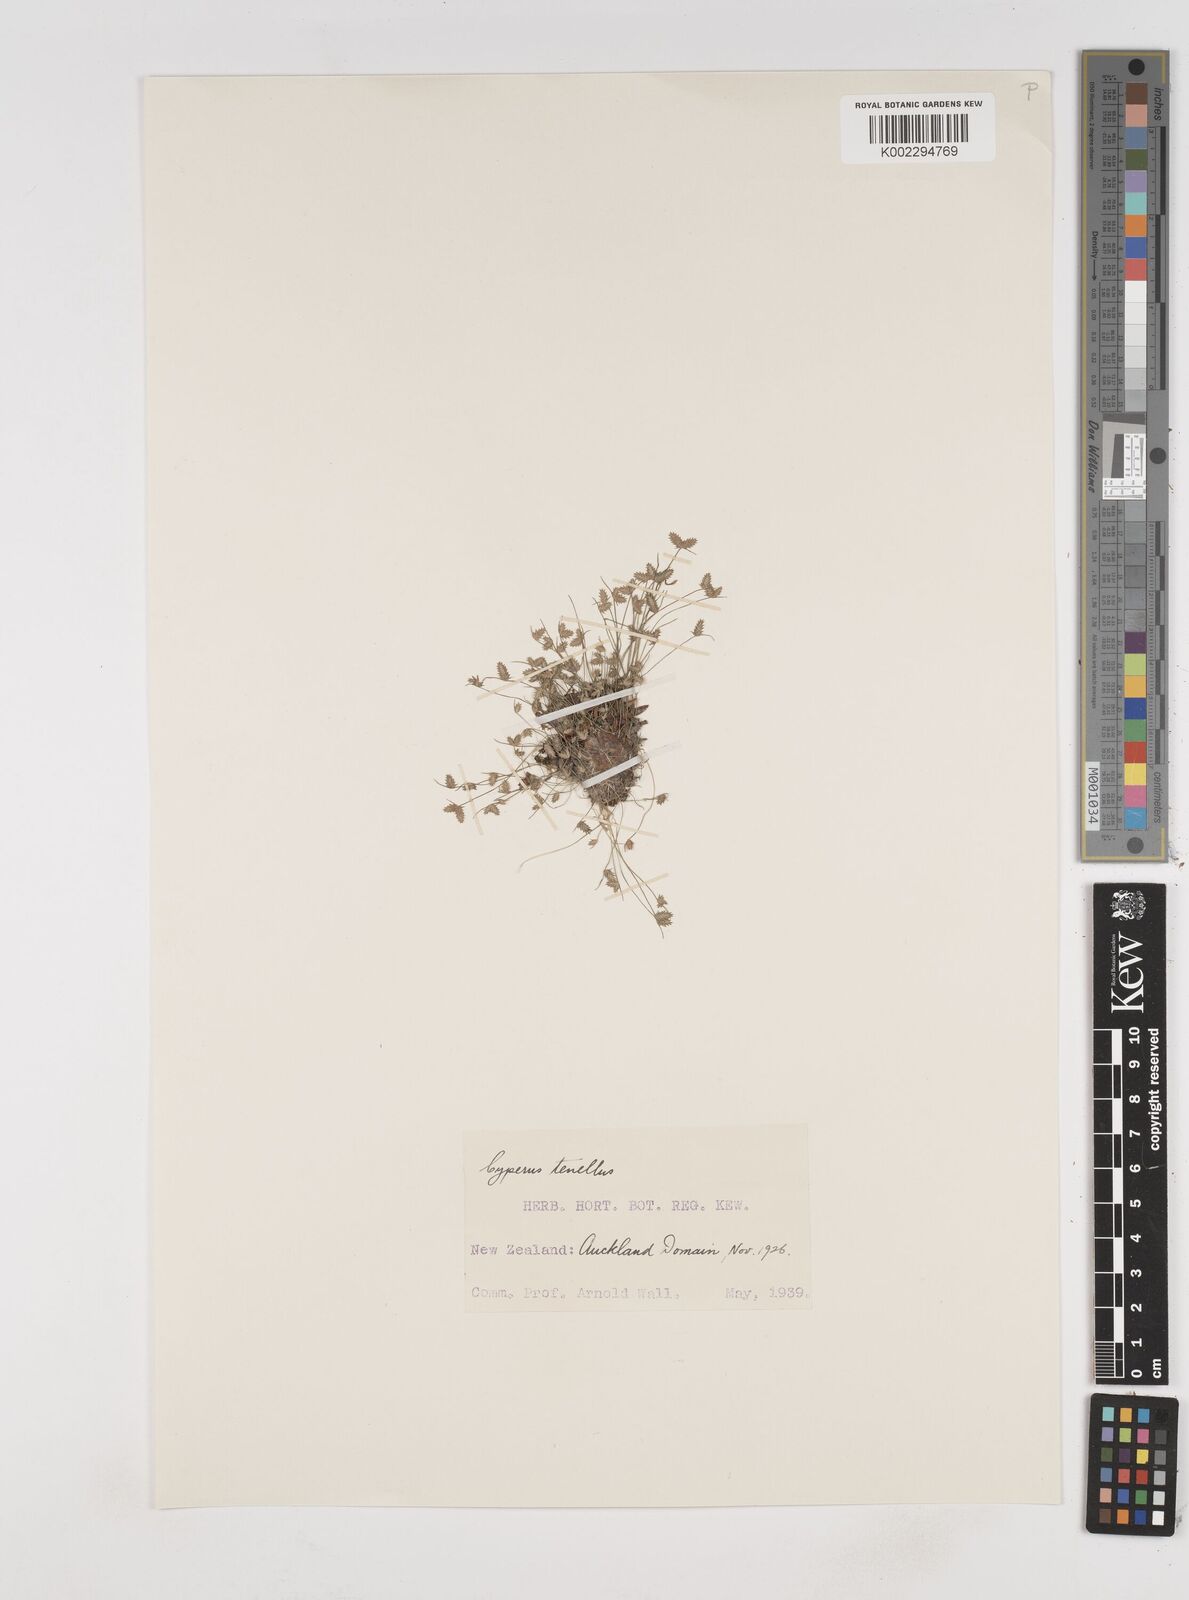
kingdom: Plantae
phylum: Tracheophyta
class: Liliopsida
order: Poales
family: Cyperaceae
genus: Cyperus
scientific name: Cyperus gracilis
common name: Slimjim flatsedge
